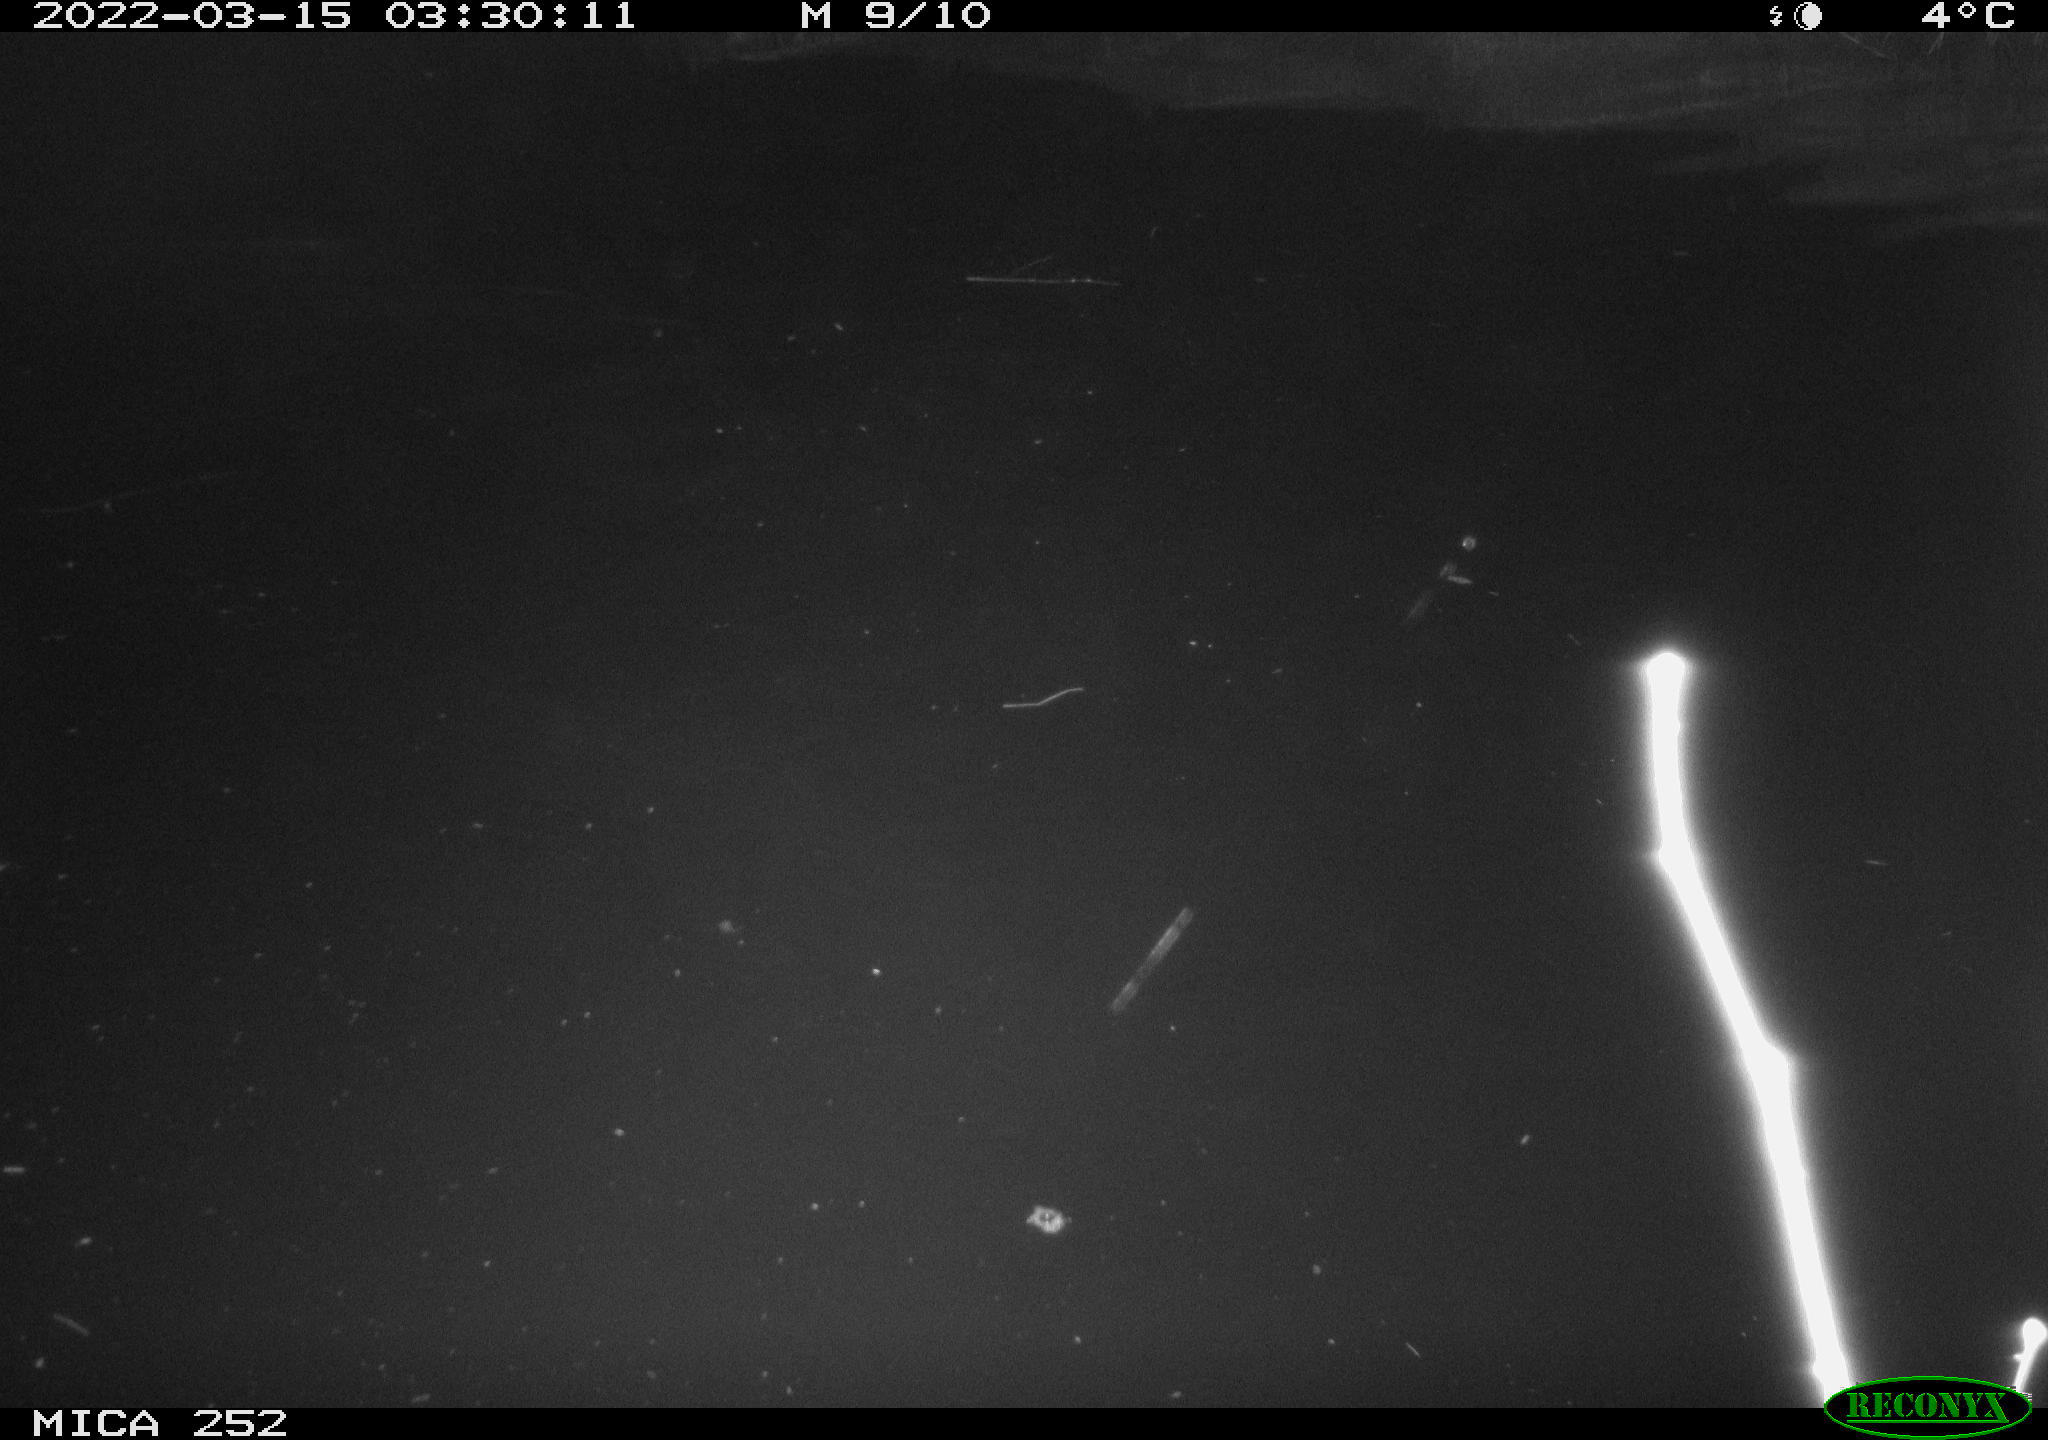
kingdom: Animalia
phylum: Chordata
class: Mammalia
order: Rodentia
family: Castoridae
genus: Castor
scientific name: Castor fiber
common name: Eurasian beaver
